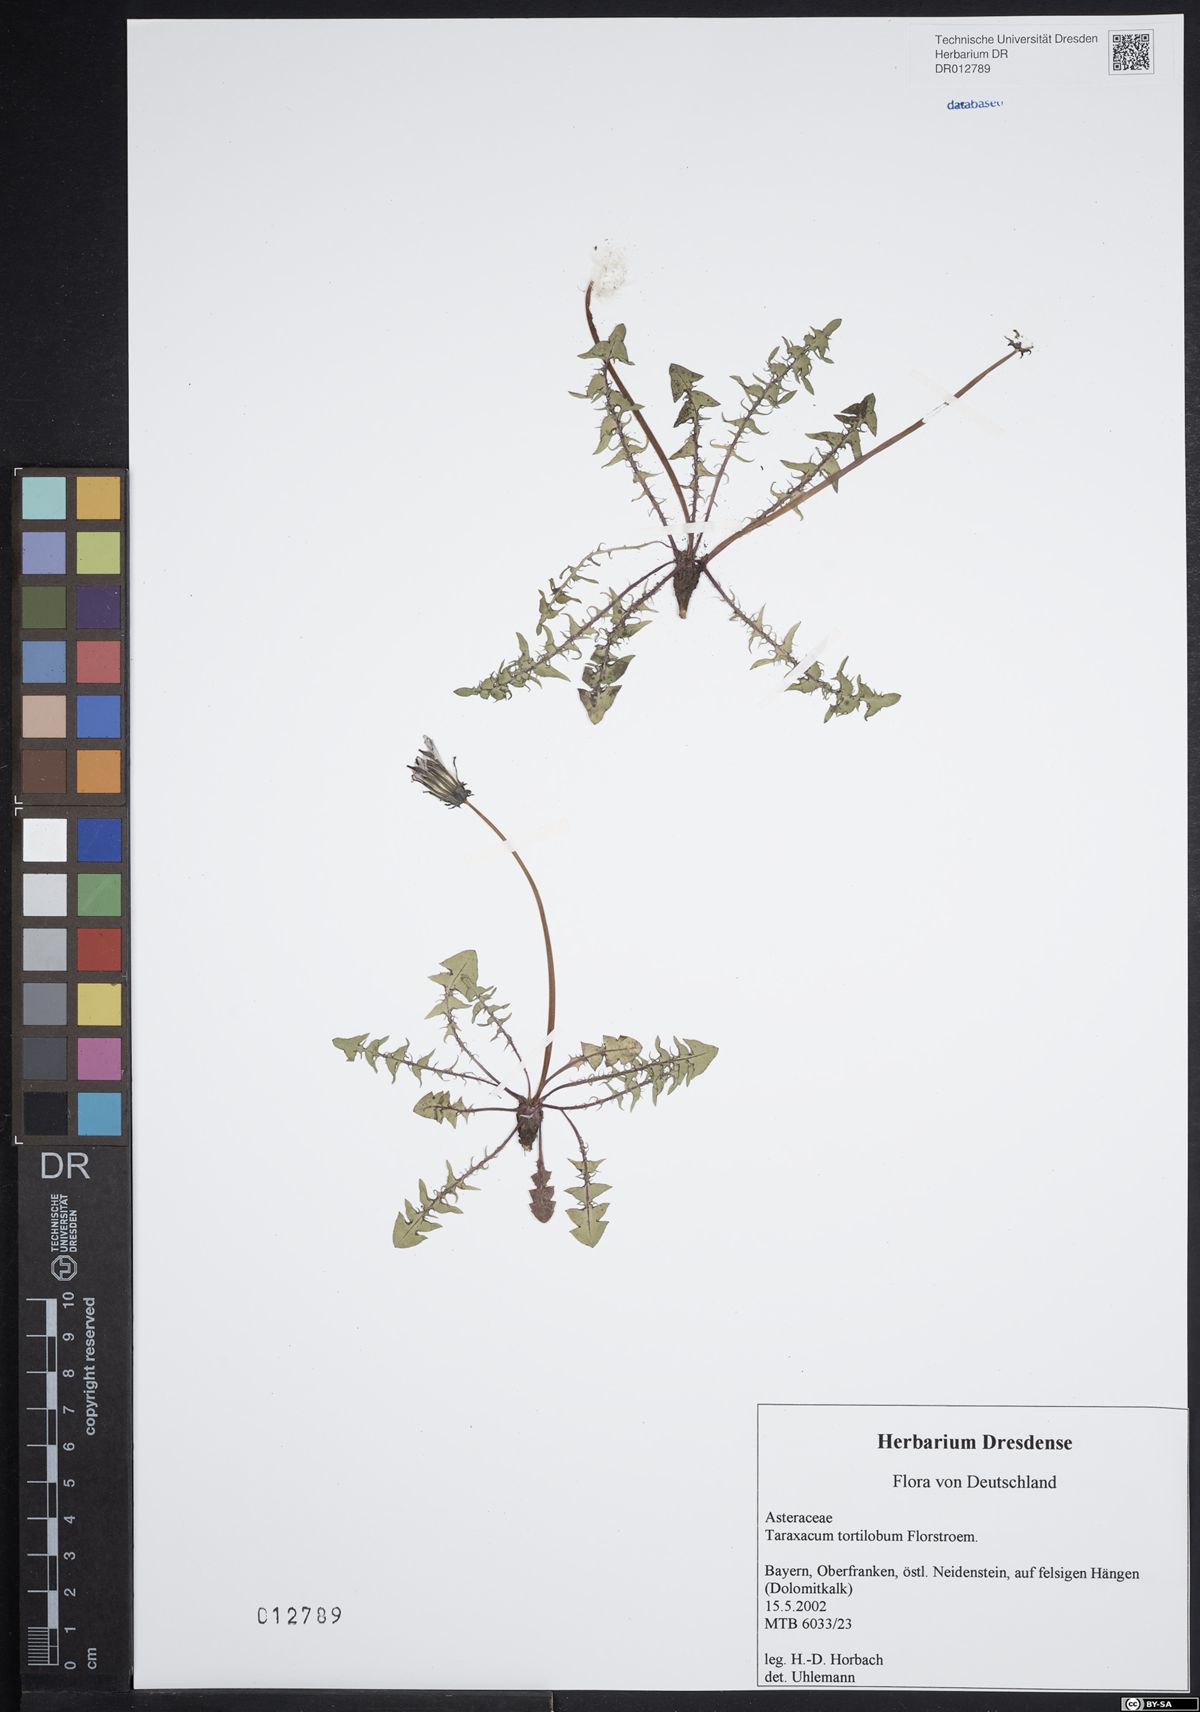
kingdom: Plantae
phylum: Tracheophyta
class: Magnoliopsida
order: Asterales
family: Asteraceae
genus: Taraxacum
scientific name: Taraxacum tortilobum
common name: Twisted-lobed dandelion
